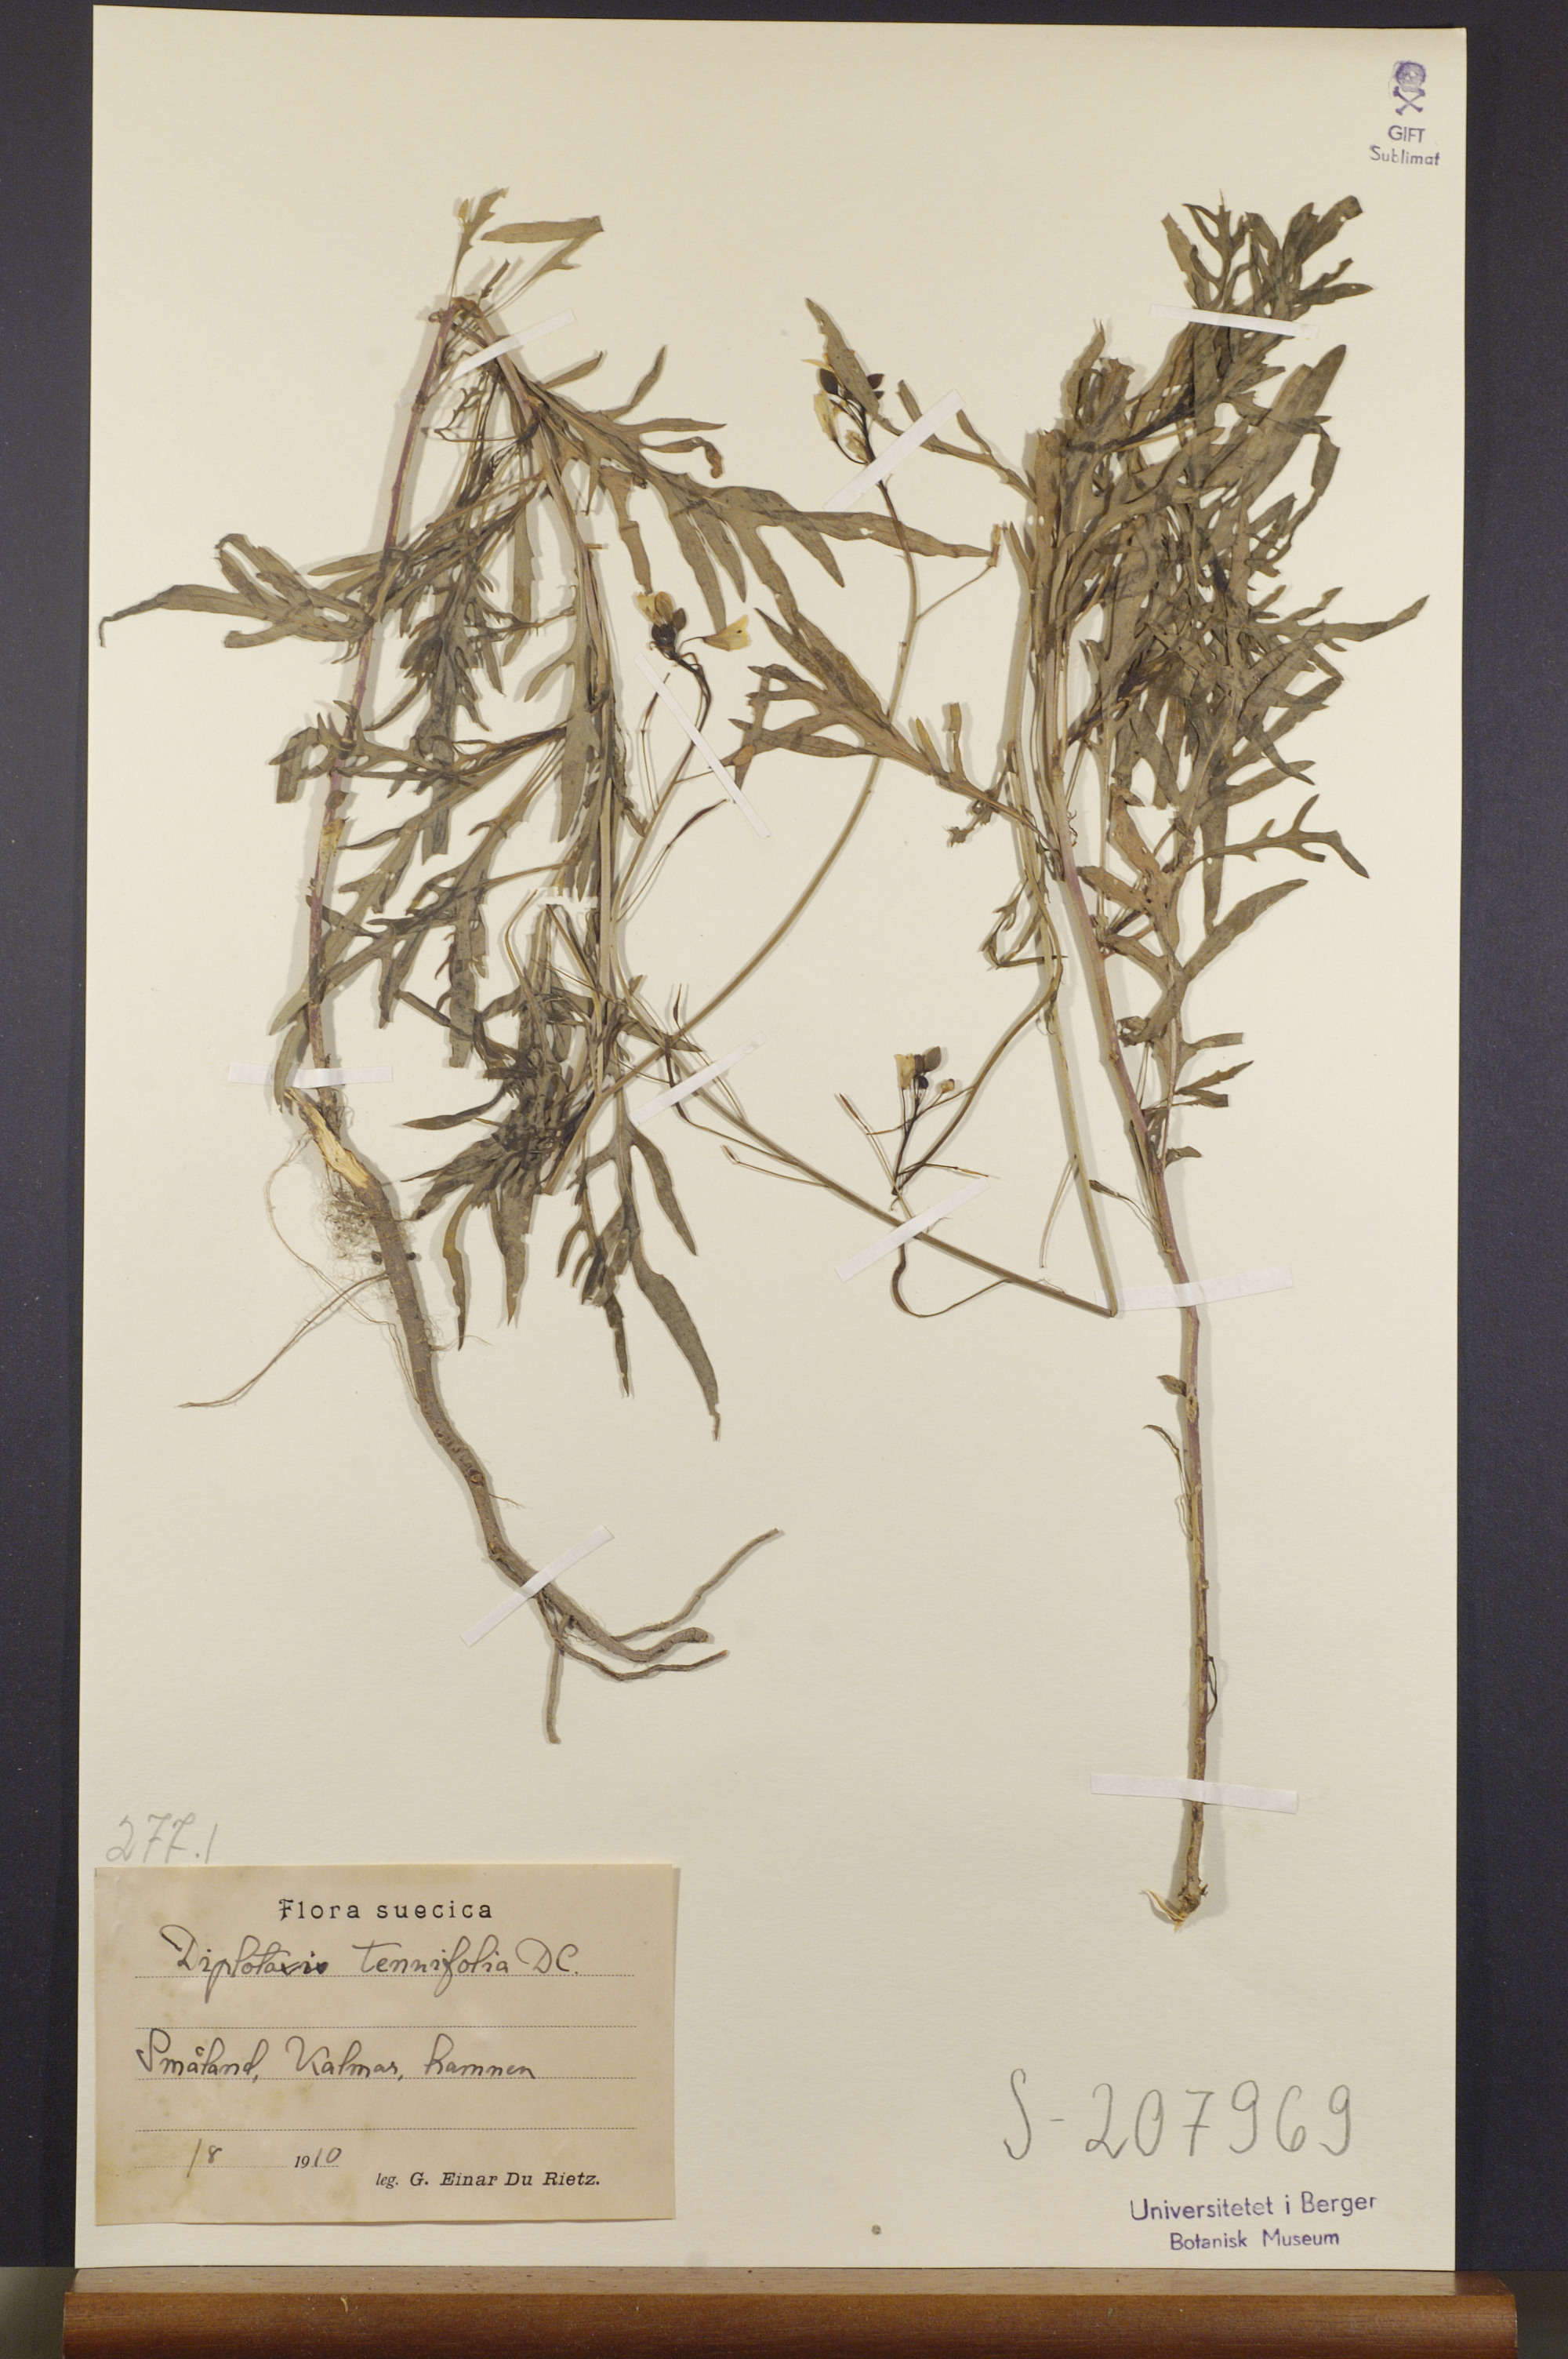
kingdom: Plantae
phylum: Tracheophyta
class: Magnoliopsida
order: Brassicales
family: Brassicaceae
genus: Diplotaxis
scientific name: Diplotaxis tenuifolia
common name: Perennial wall-rocket
